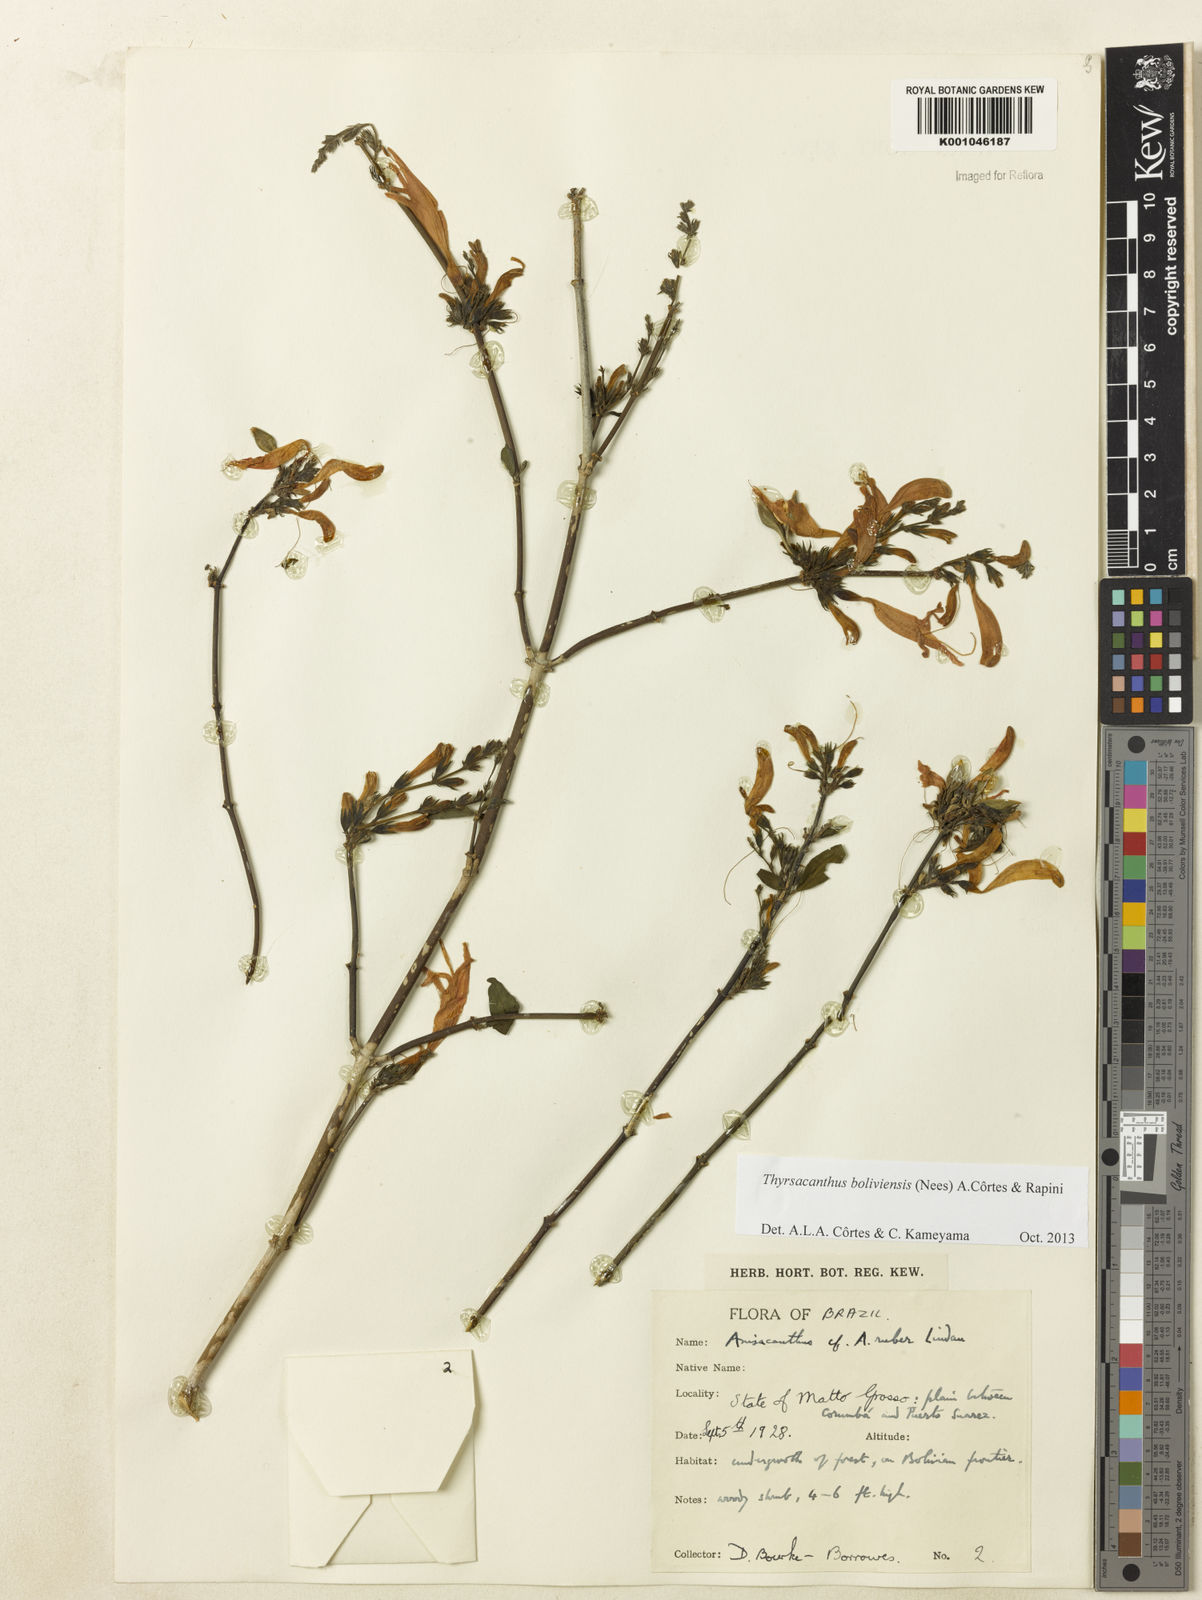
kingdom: Plantae
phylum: Tracheophyta
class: Magnoliopsida
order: Lamiales
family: Acanthaceae
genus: Thyrsacanthus
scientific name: Thyrsacanthus boliviensis
